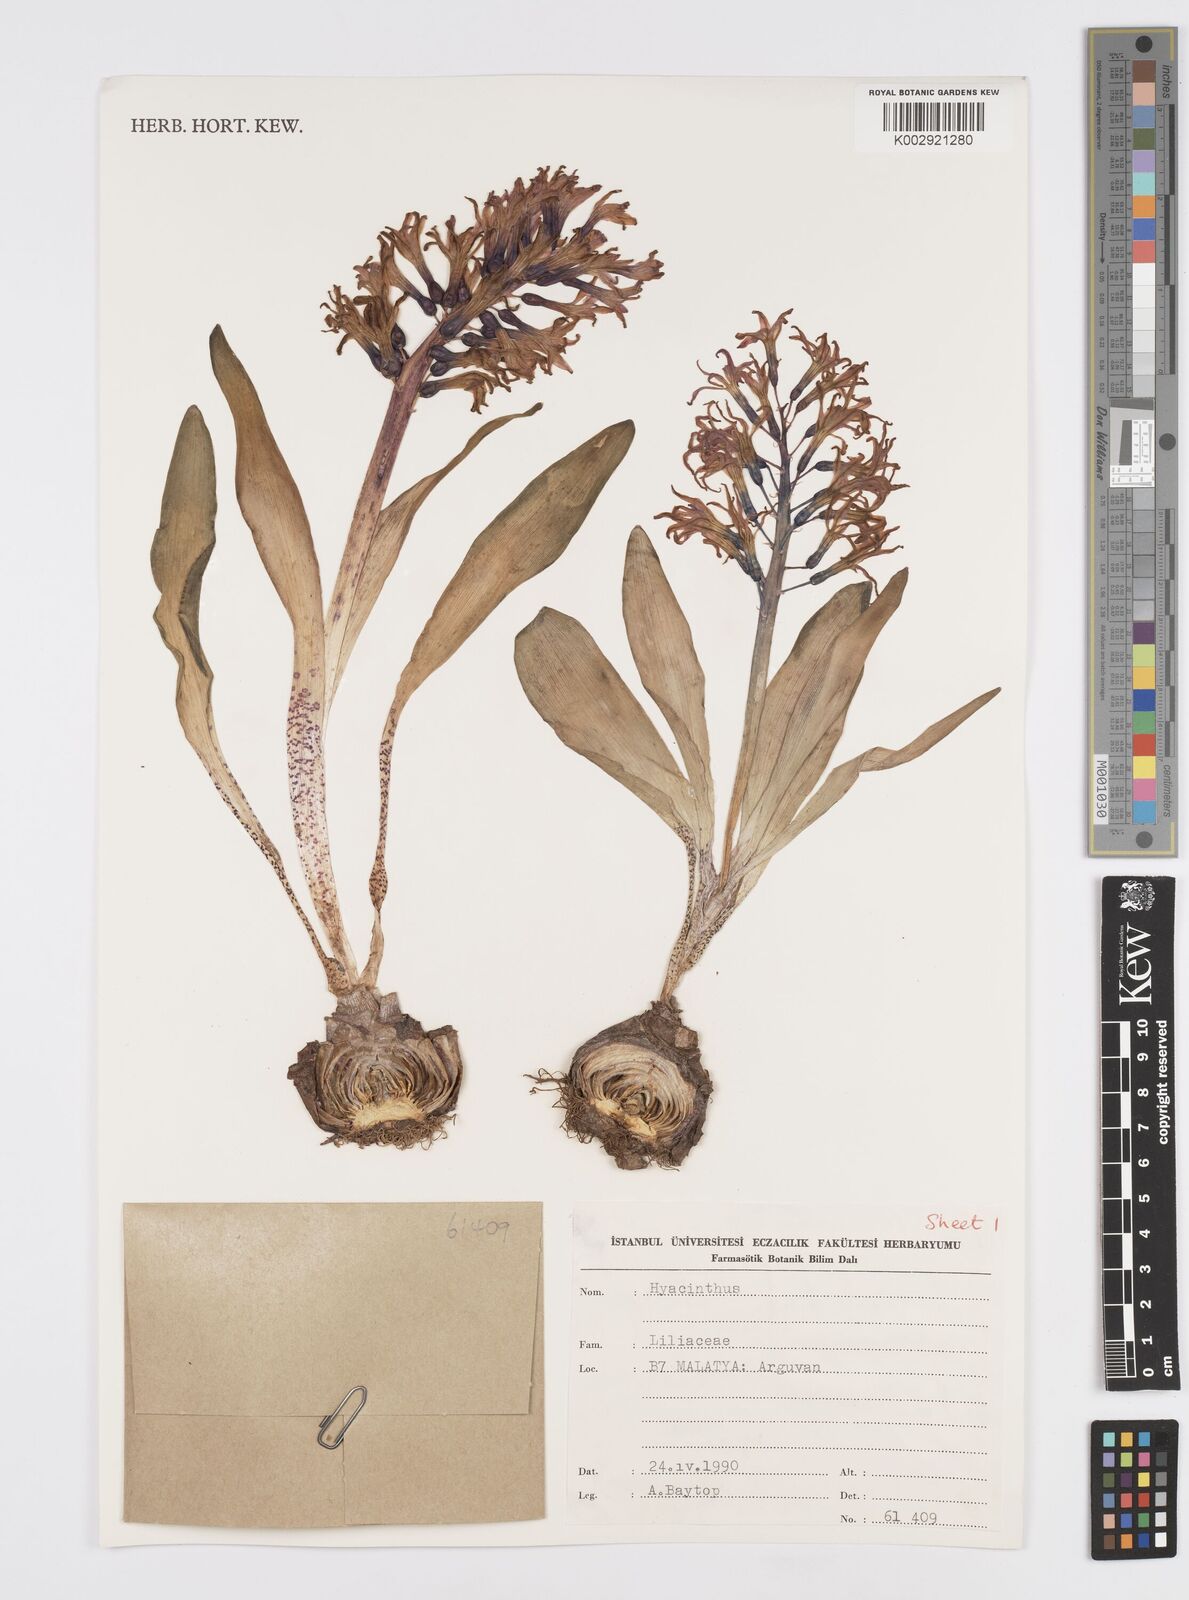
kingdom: Plantae
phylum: Tracheophyta
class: Liliopsida
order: Asparagales
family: Asparagaceae
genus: Hyacinthus
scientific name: Hyacinthus
